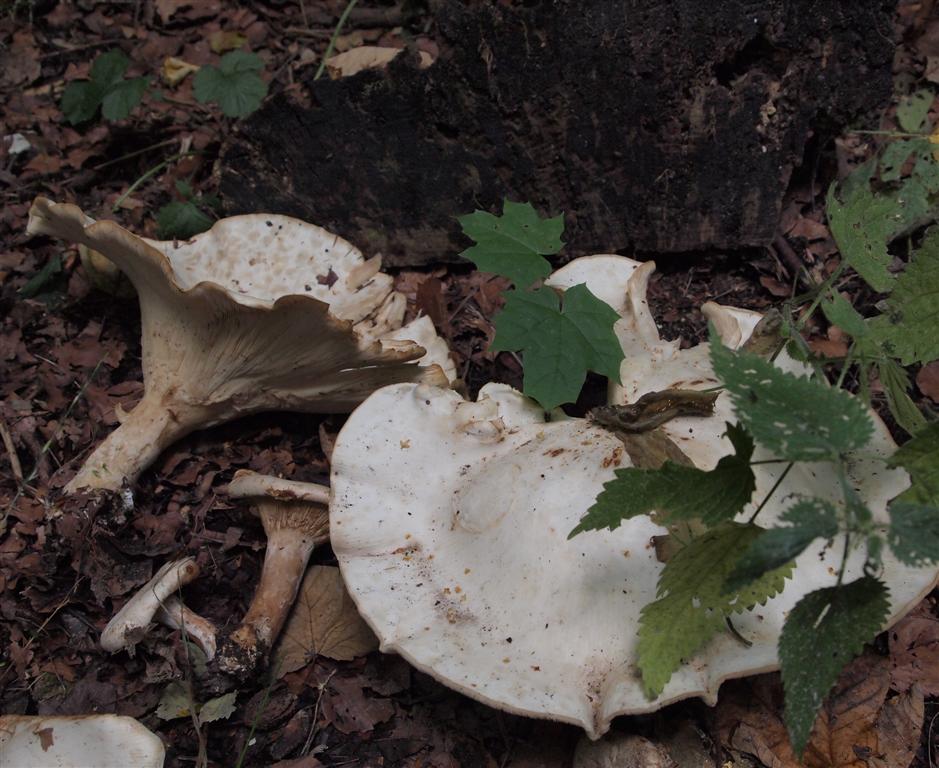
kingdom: Fungi
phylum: Basidiomycota
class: Agaricomycetes
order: Agaricales
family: Tricholomataceae
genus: Aspropaxillus
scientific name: Aspropaxillus giganteus
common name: kæmpe-tragtridderhat
